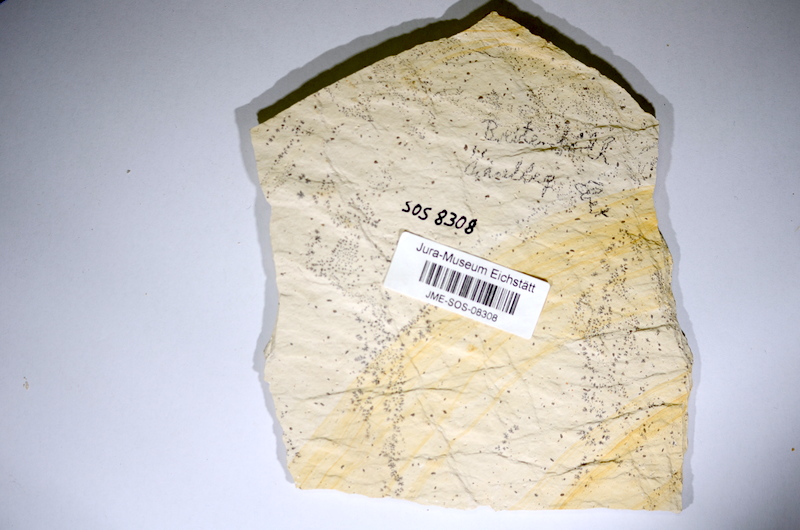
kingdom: Animalia
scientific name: Animalia
